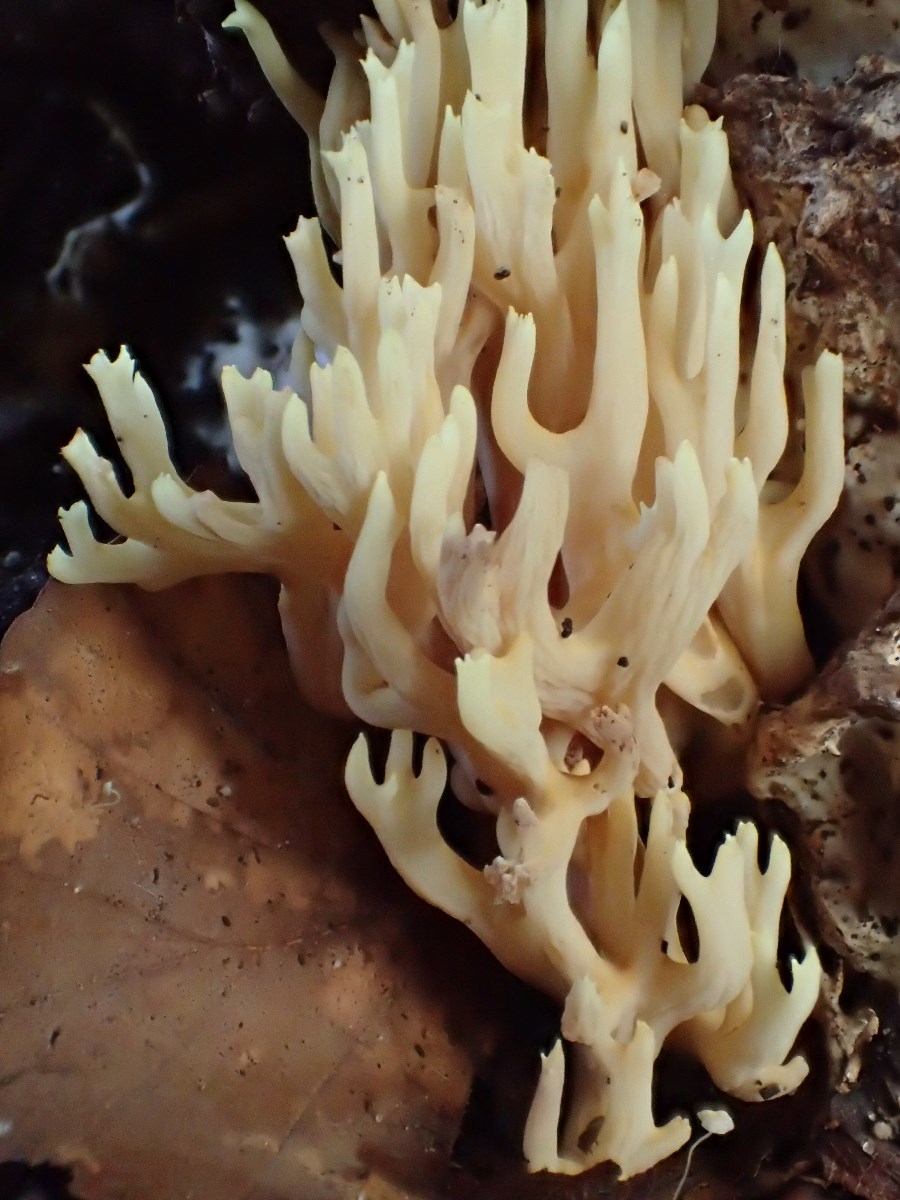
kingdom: Fungi
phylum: Basidiomycota
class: Agaricomycetes
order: Gomphales
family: Gomphaceae
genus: Ramaria
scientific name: Ramaria stricta
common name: rank koralsvamp
